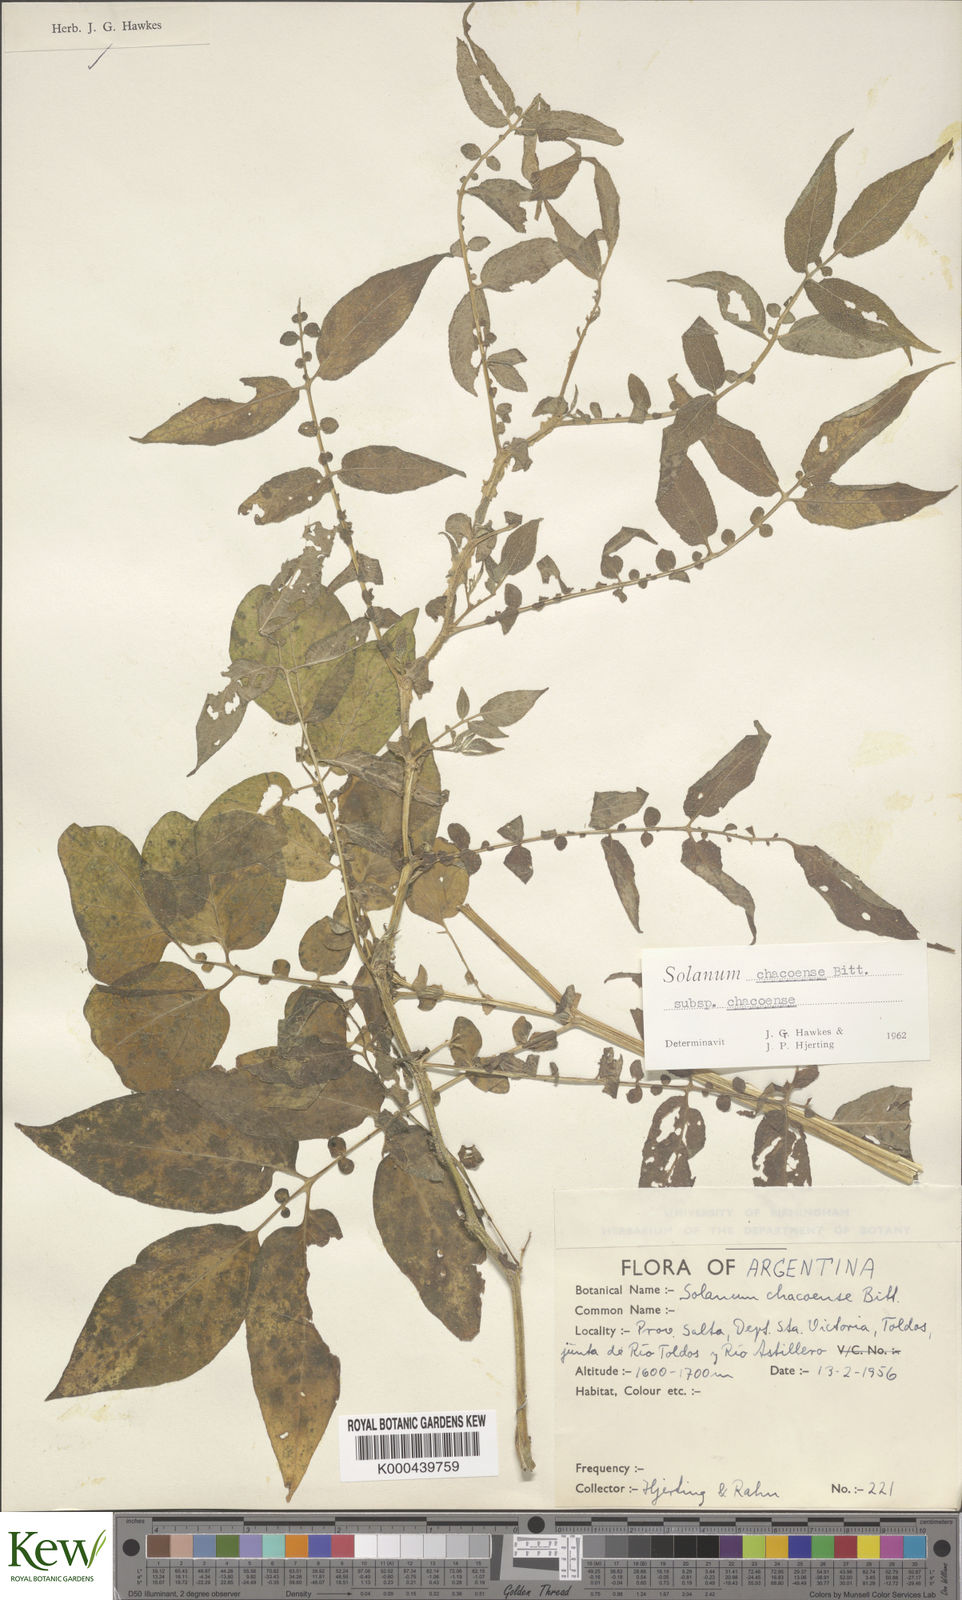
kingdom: Plantae
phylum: Tracheophyta
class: Magnoliopsida
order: Solanales
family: Solanaceae
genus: Solanum
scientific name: Solanum chacoense
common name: Chaco potato
